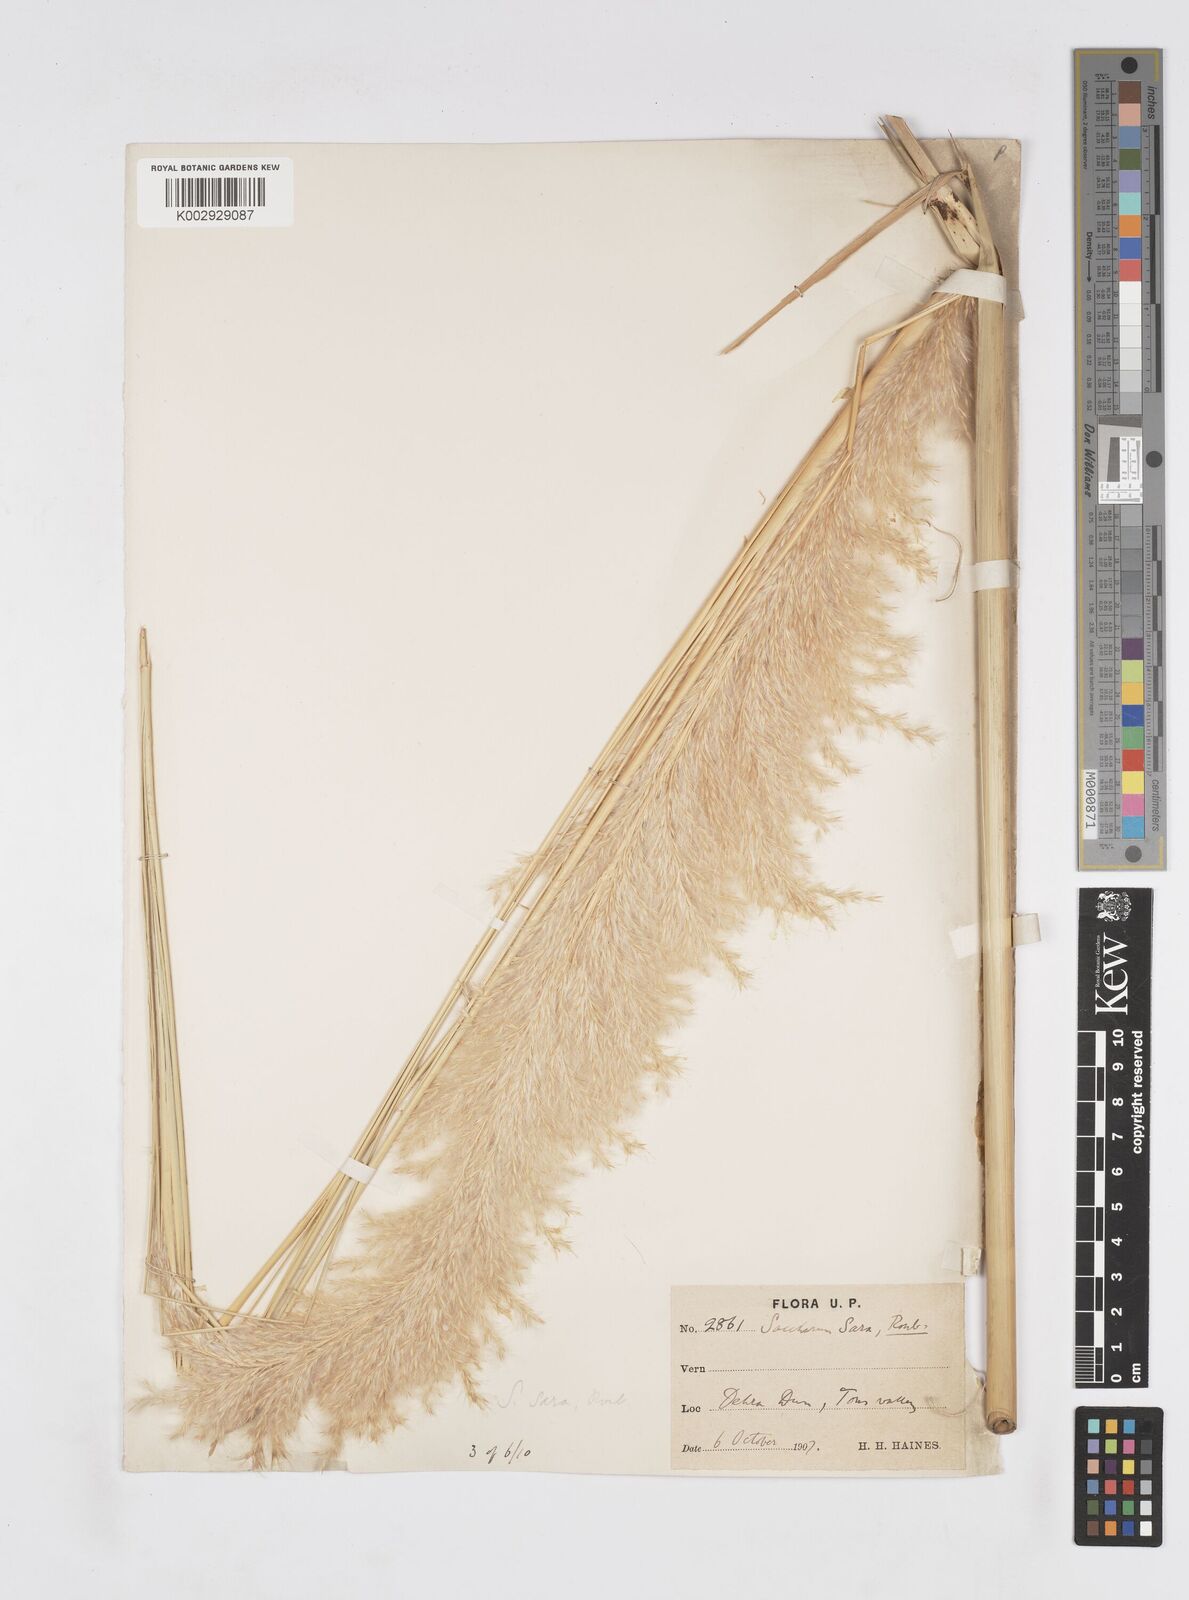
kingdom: Plantae
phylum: Tracheophyta
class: Liliopsida
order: Poales
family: Poaceae
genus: Tripidium
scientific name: Tripidium bengalense
